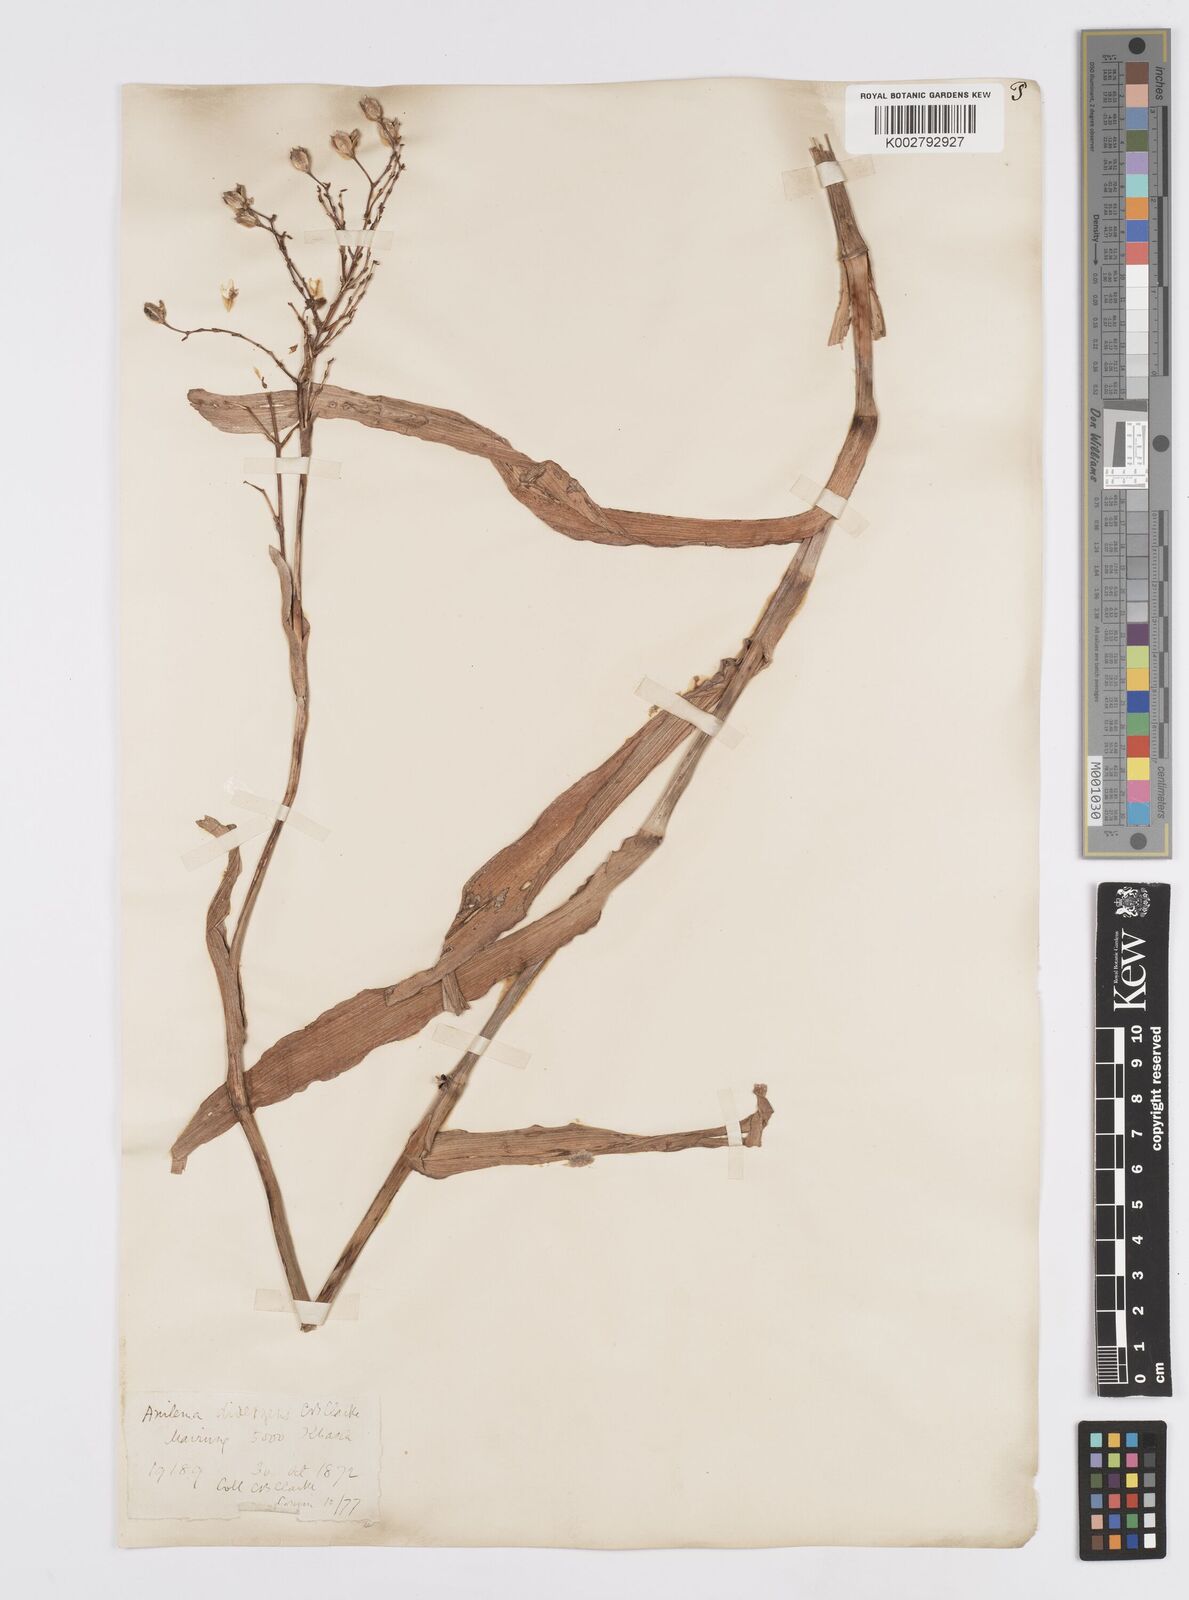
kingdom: Plantae
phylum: Tracheophyta
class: Liliopsida
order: Commelinales
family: Commelinaceae
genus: Murdannia
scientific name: Murdannia divergens
